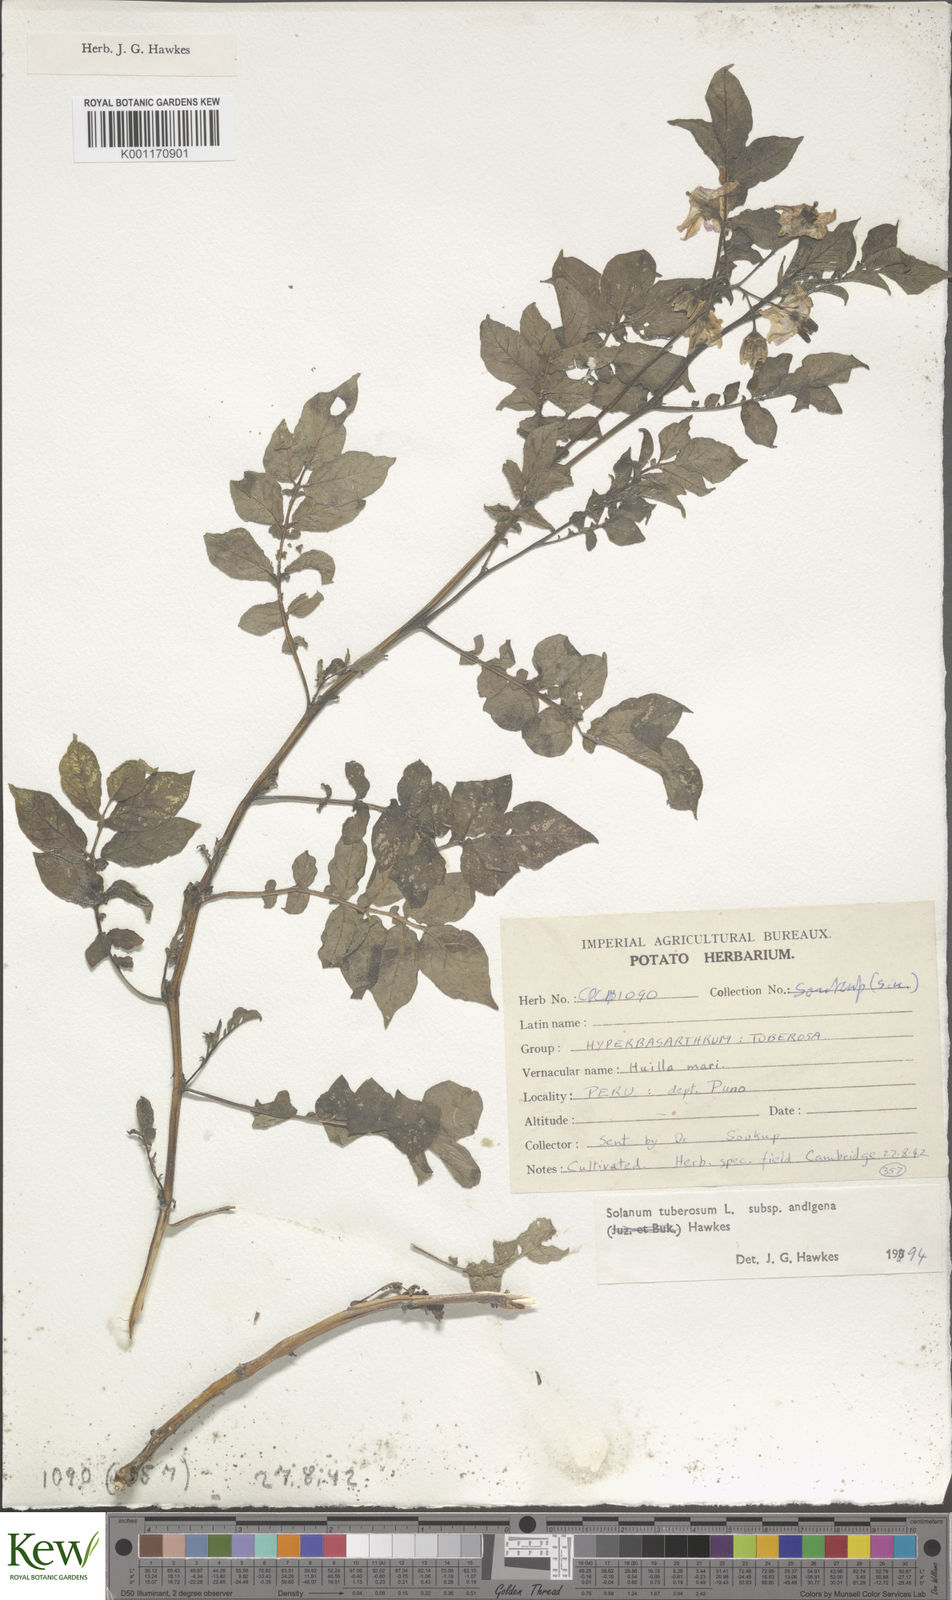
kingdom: Plantae
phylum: Tracheophyta
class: Magnoliopsida
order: Solanales
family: Solanaceae
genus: Solanum
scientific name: Solanum tuberosum
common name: Potato
